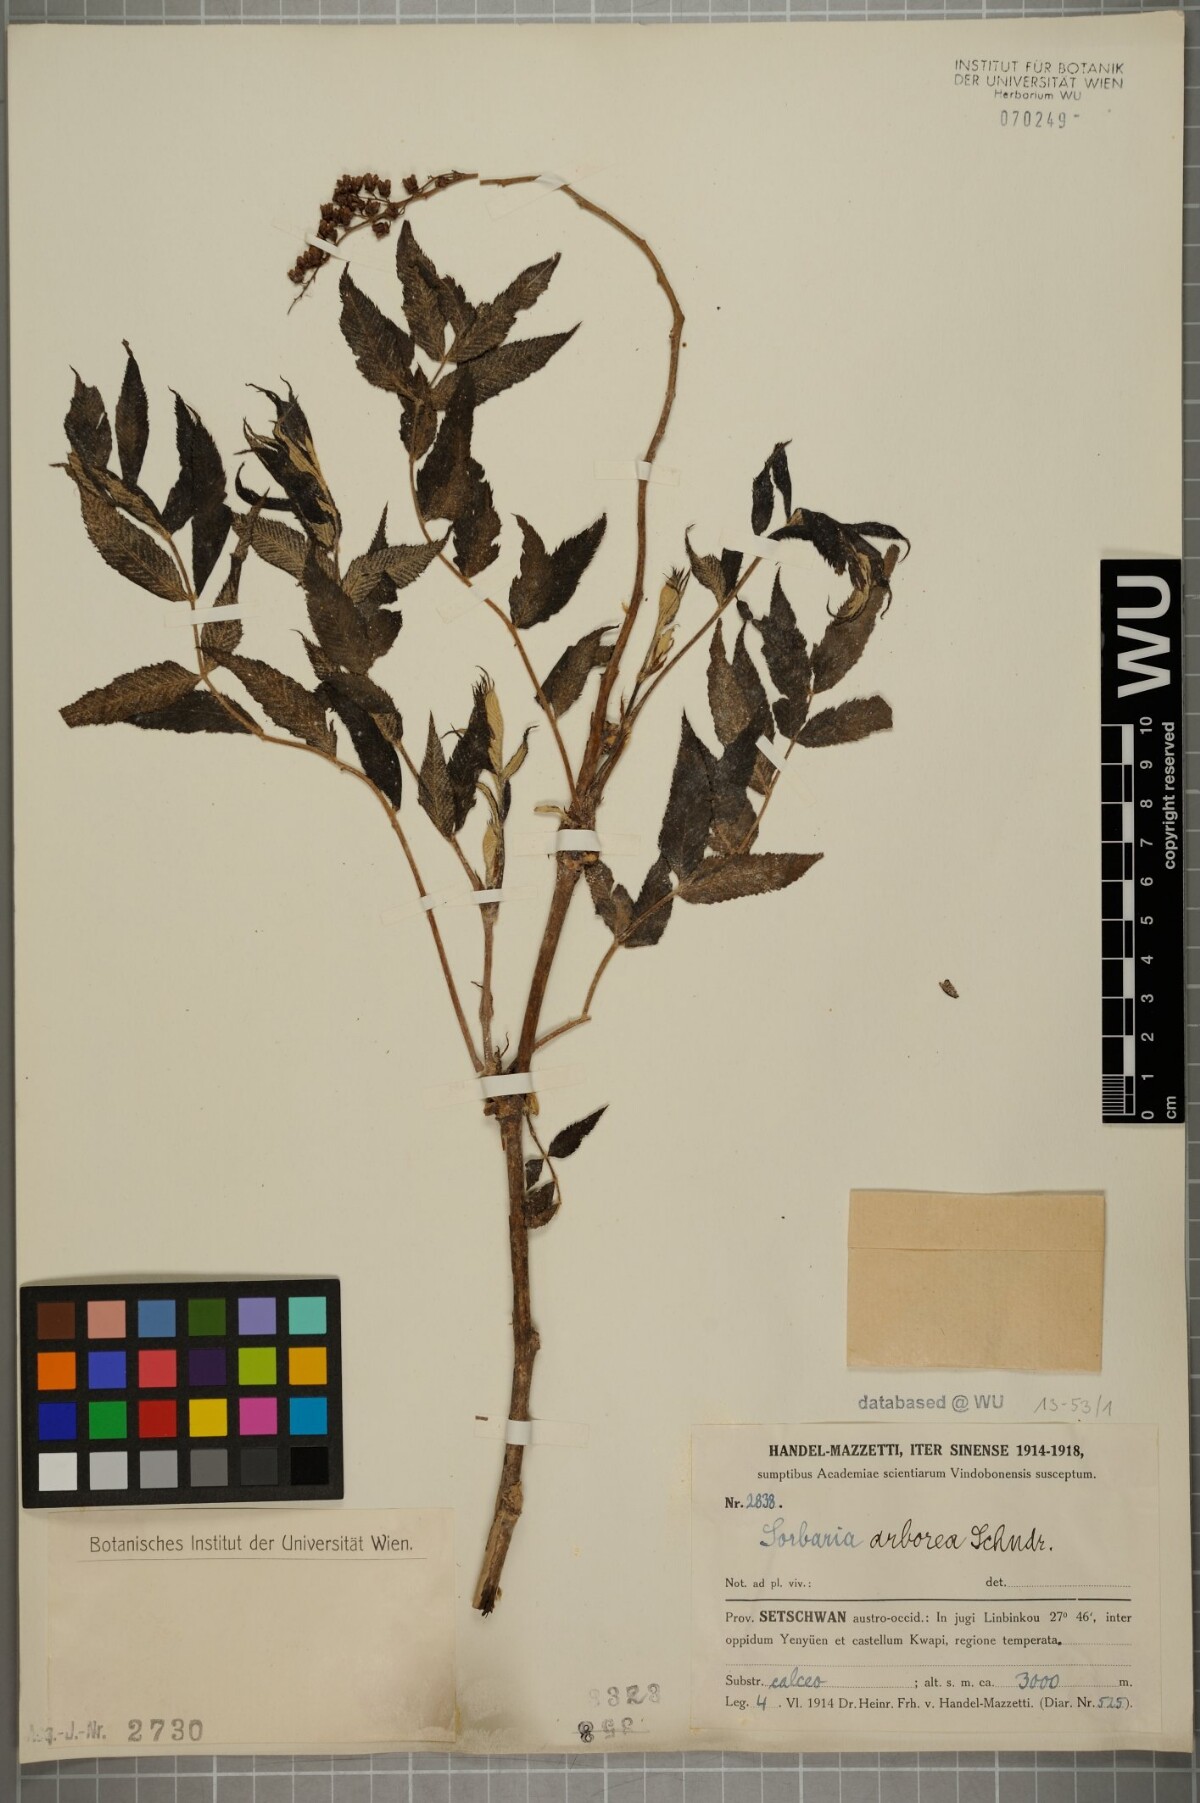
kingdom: Plantae
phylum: Tracheophyta
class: Magnoliopsida
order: Rosales
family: Rosaceae
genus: Sorbaria
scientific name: Sorbaria kirilowii
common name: Chinese sorbaria
